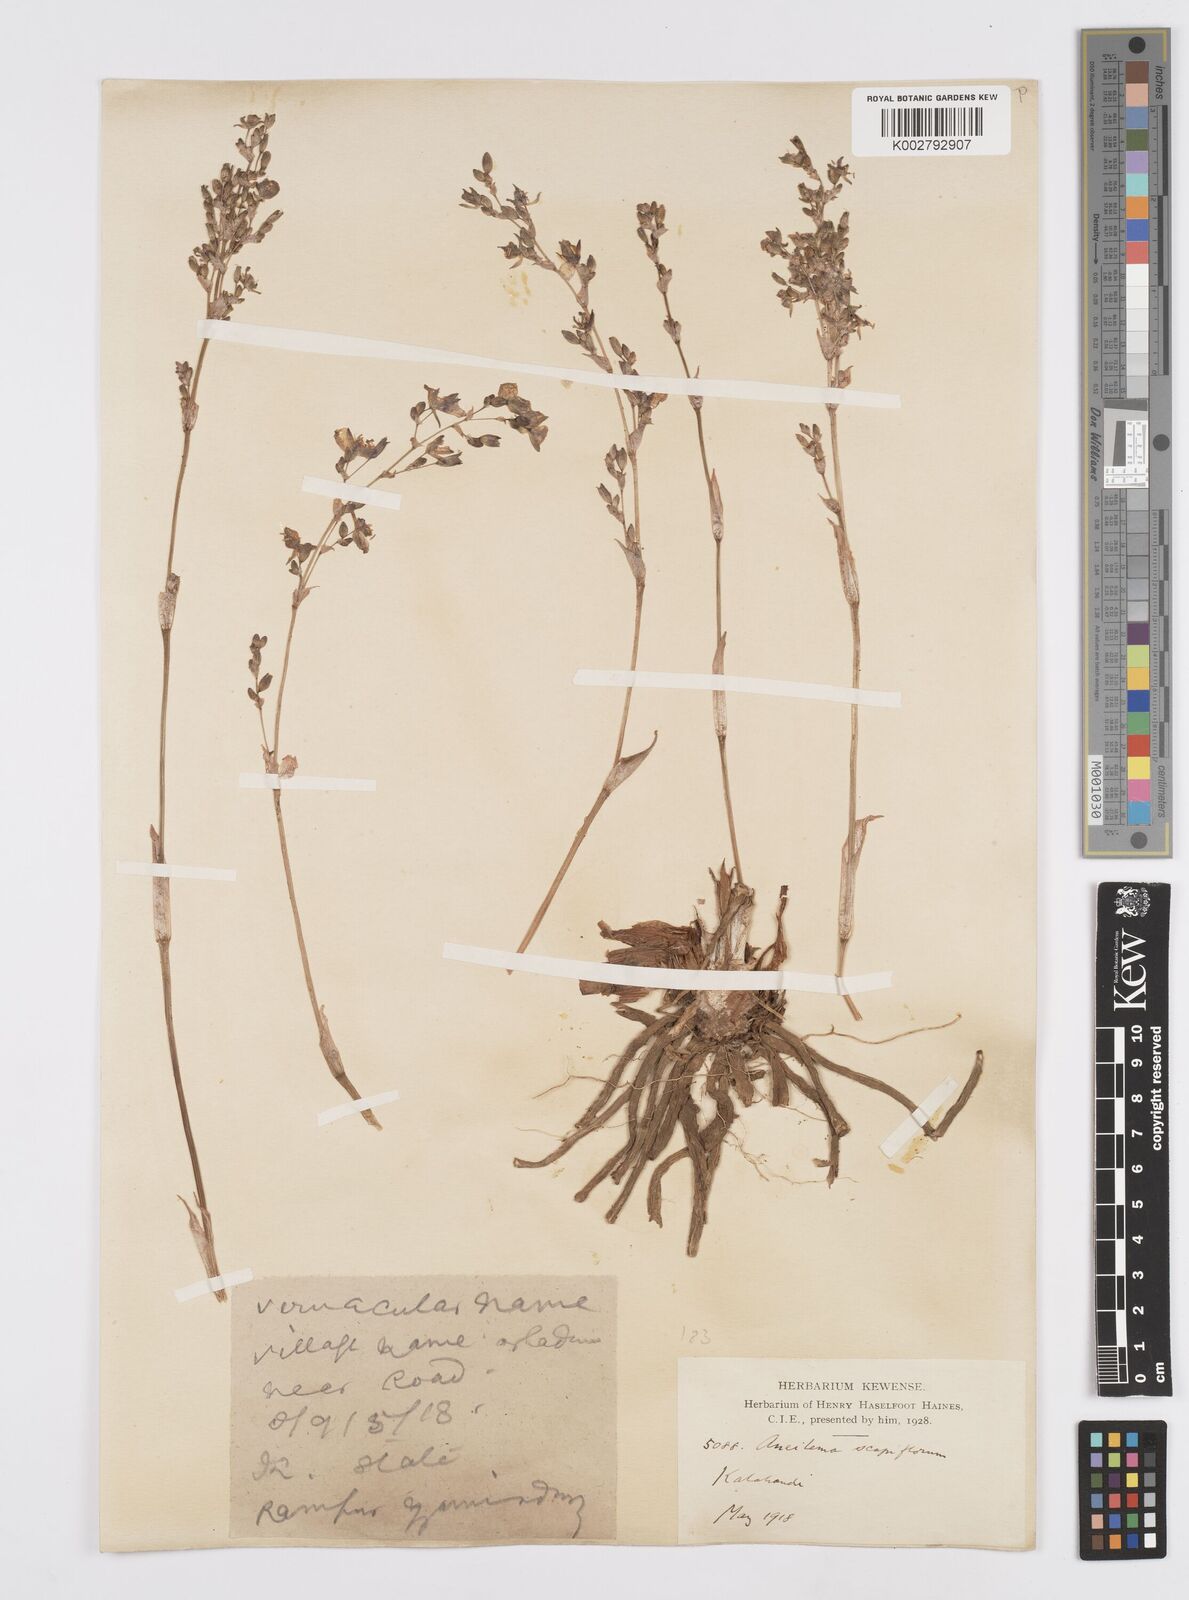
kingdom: Plantae
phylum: Tracheophyta
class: Liliopsida
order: Commelinales
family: Commelinaceae
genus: Murdannia
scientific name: Murdannia edulis
